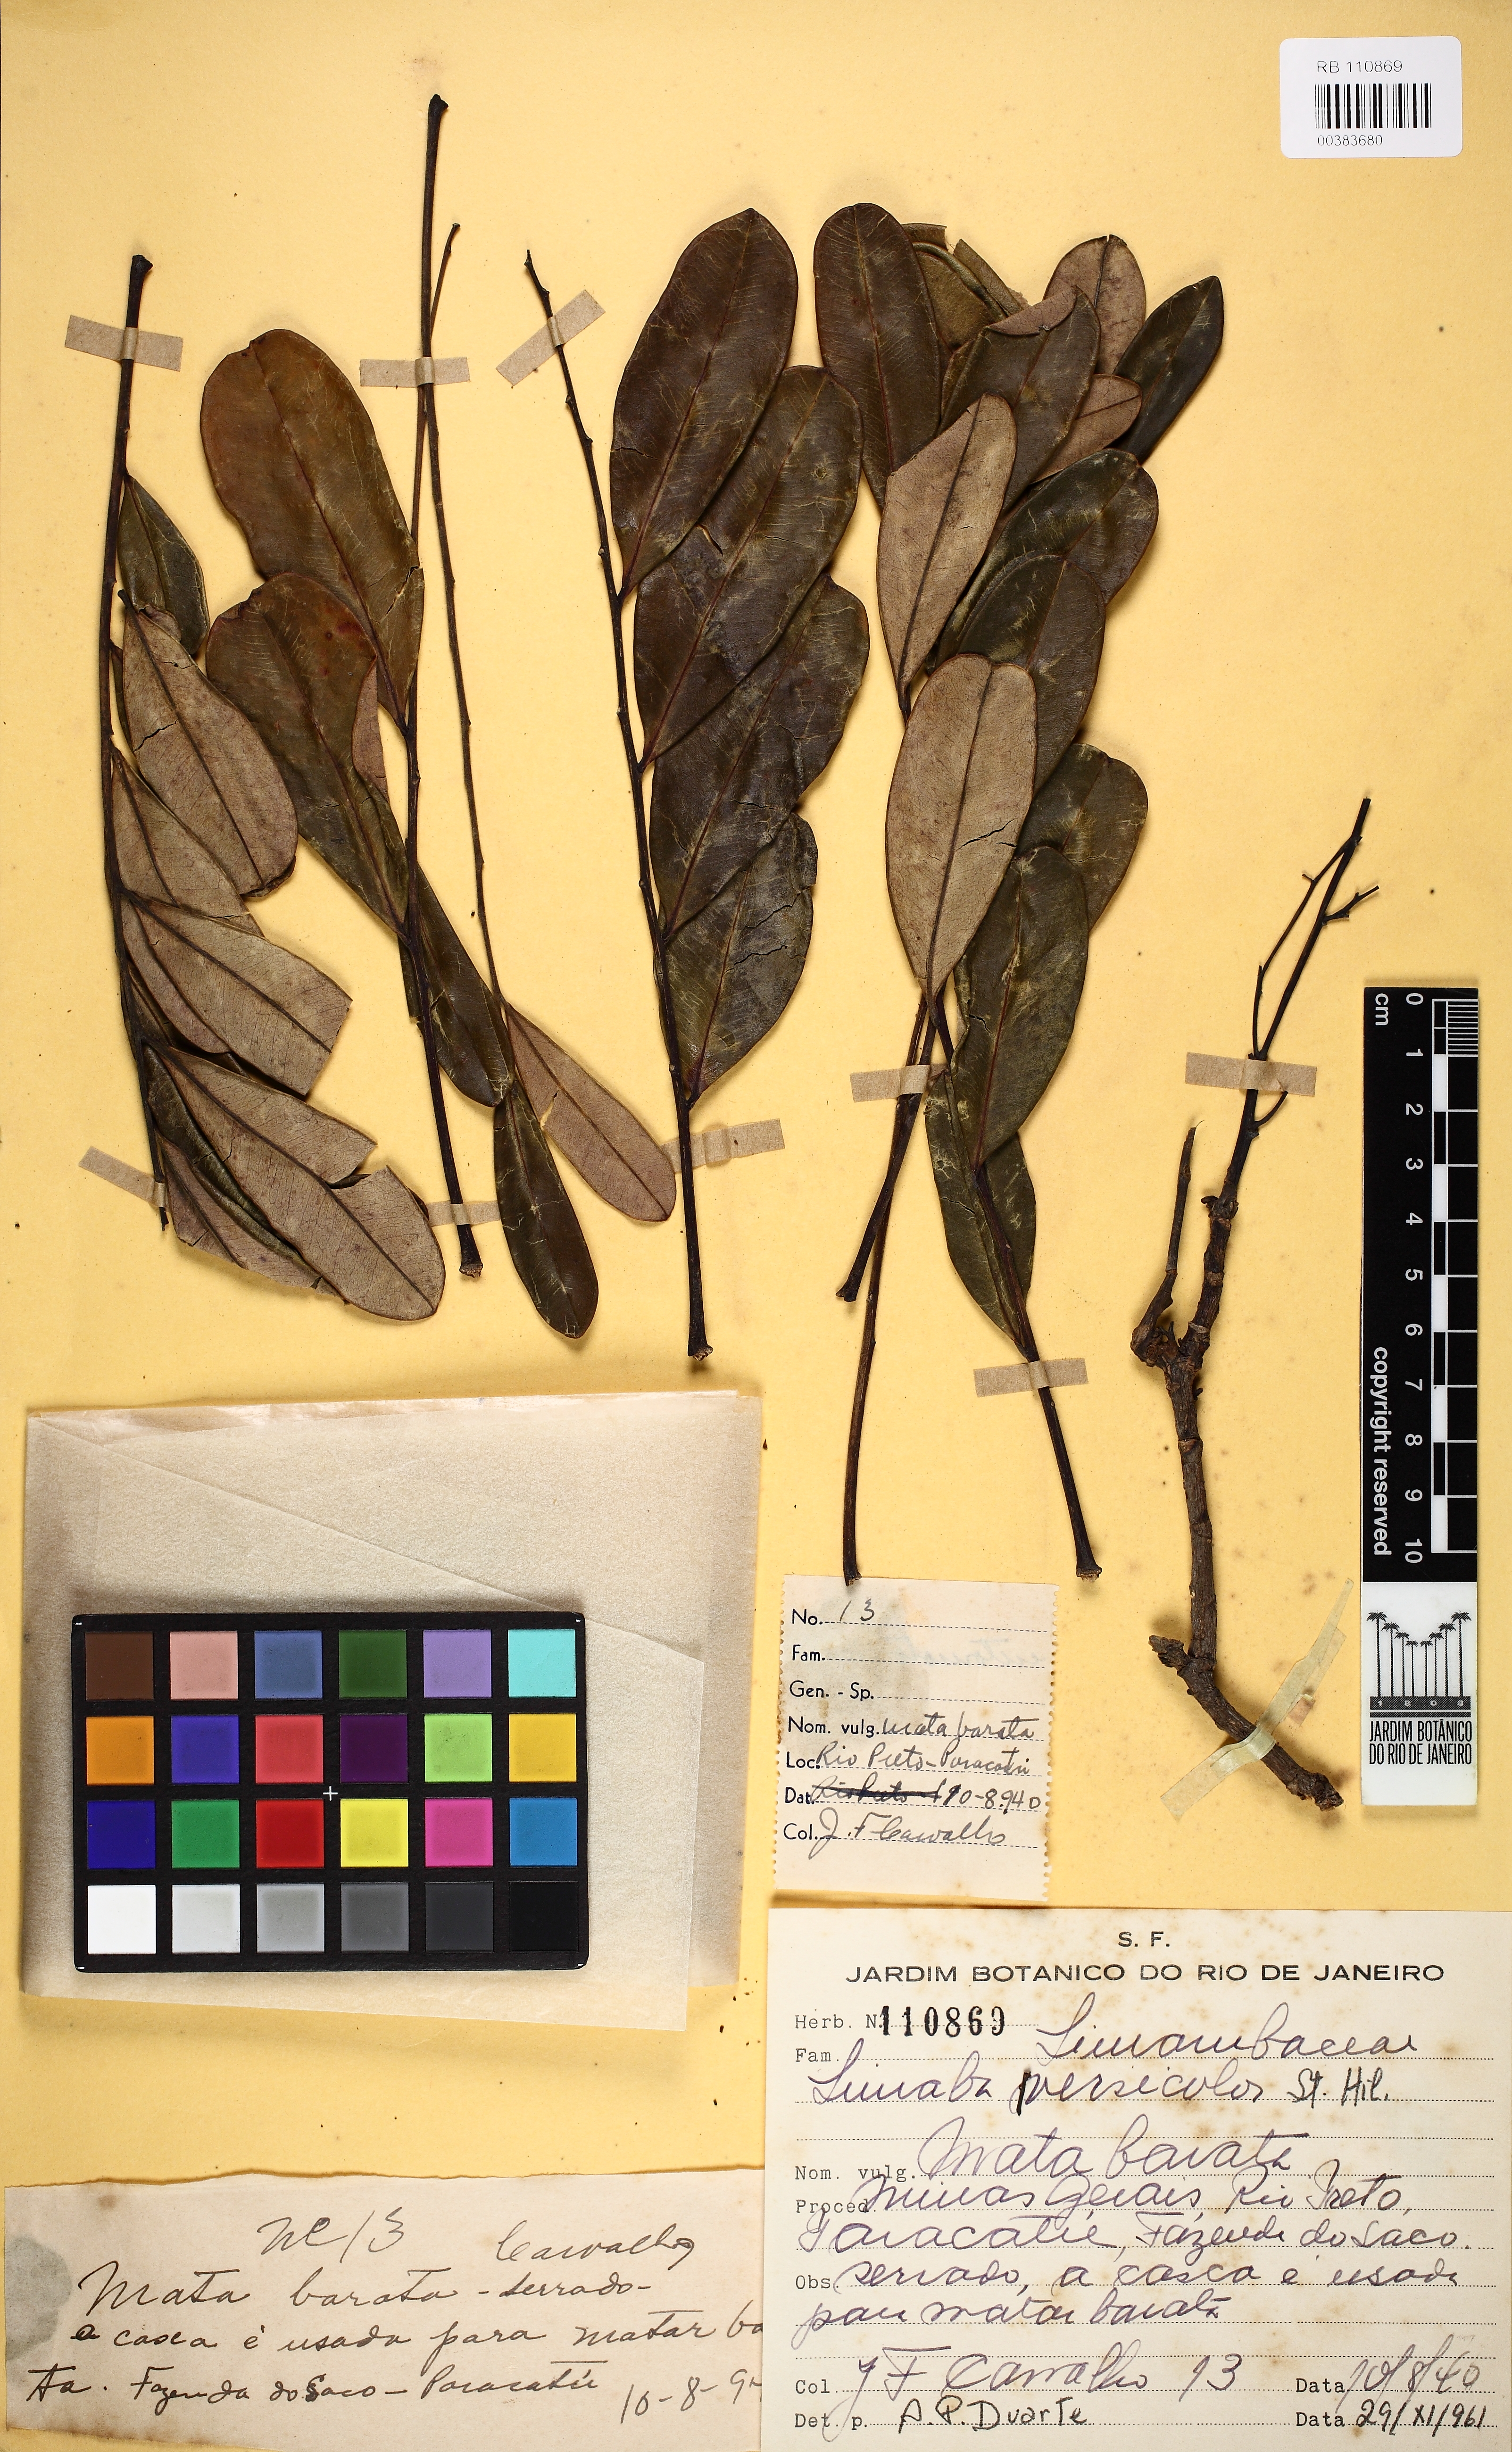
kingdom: Plantae
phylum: Tracheophyta
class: Magnoliopsida
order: Sapindales
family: Simaroubaceae
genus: Simarouba
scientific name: Simarouba versicolor
